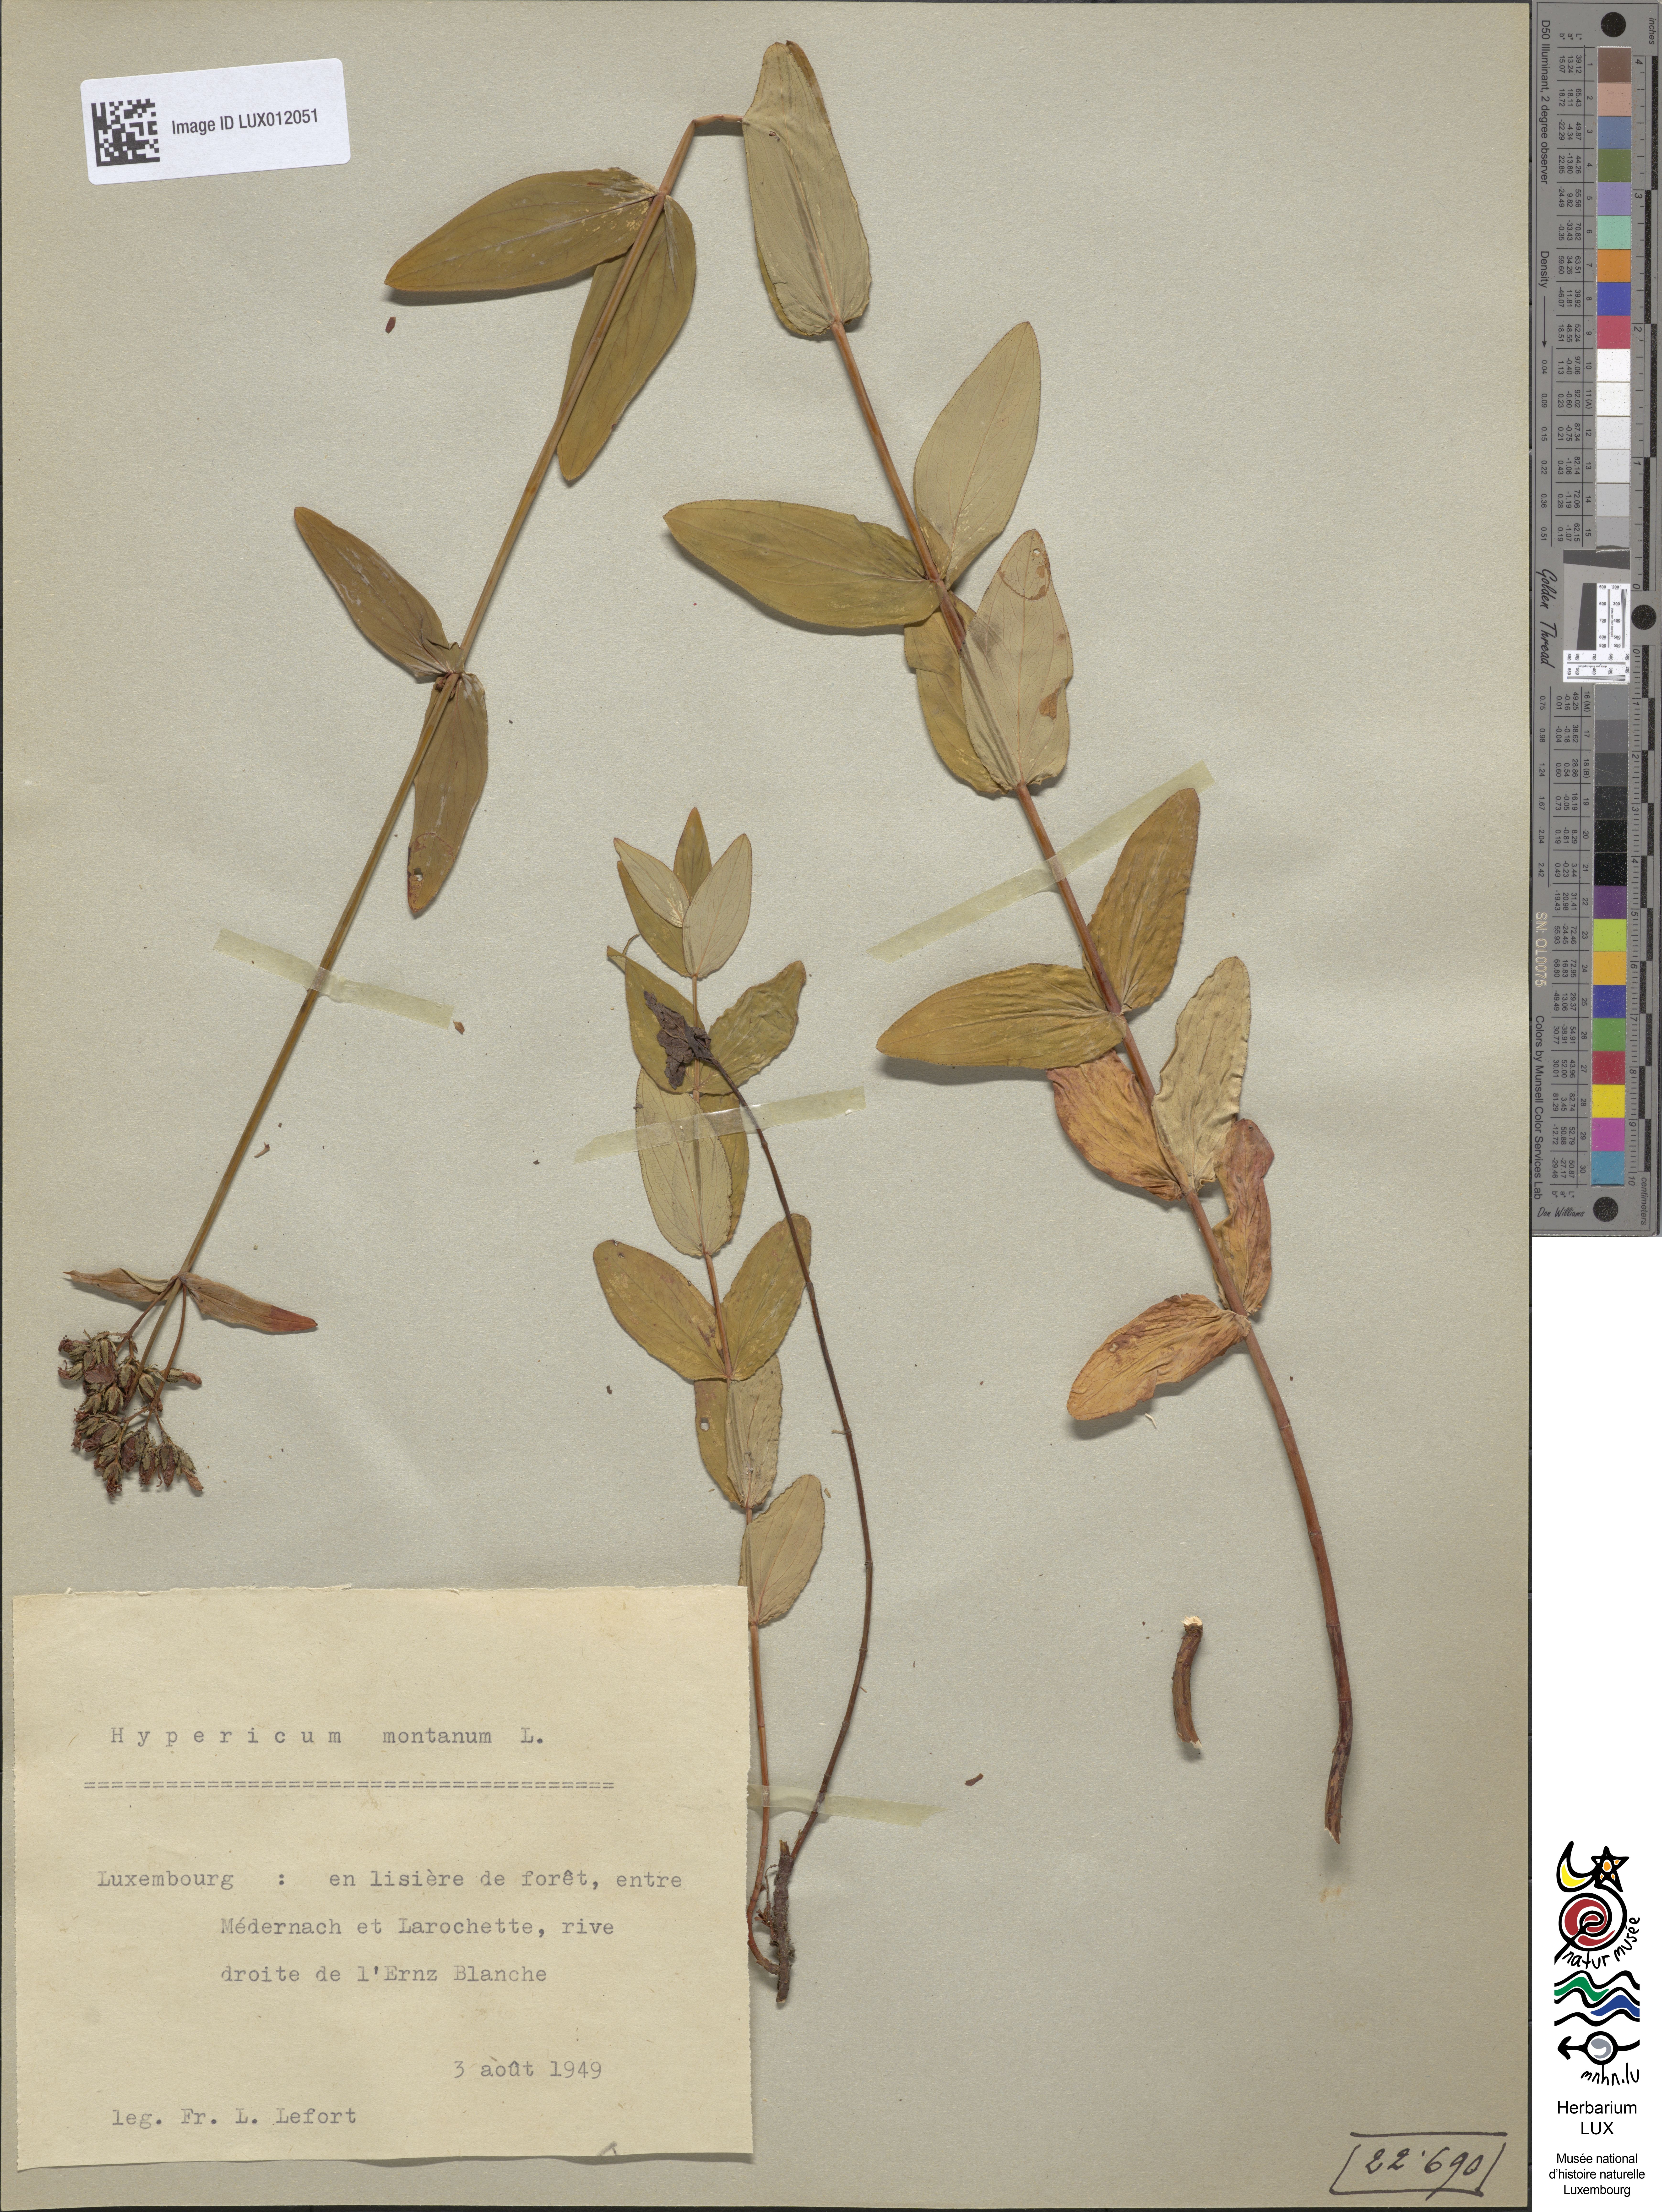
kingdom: Plantae
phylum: Tracheophyta
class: Magnoliopsida
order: Malpighiales
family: Hypericaceae
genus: Hypericum
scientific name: Hypericum montanum
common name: Pale st. john's-wort
